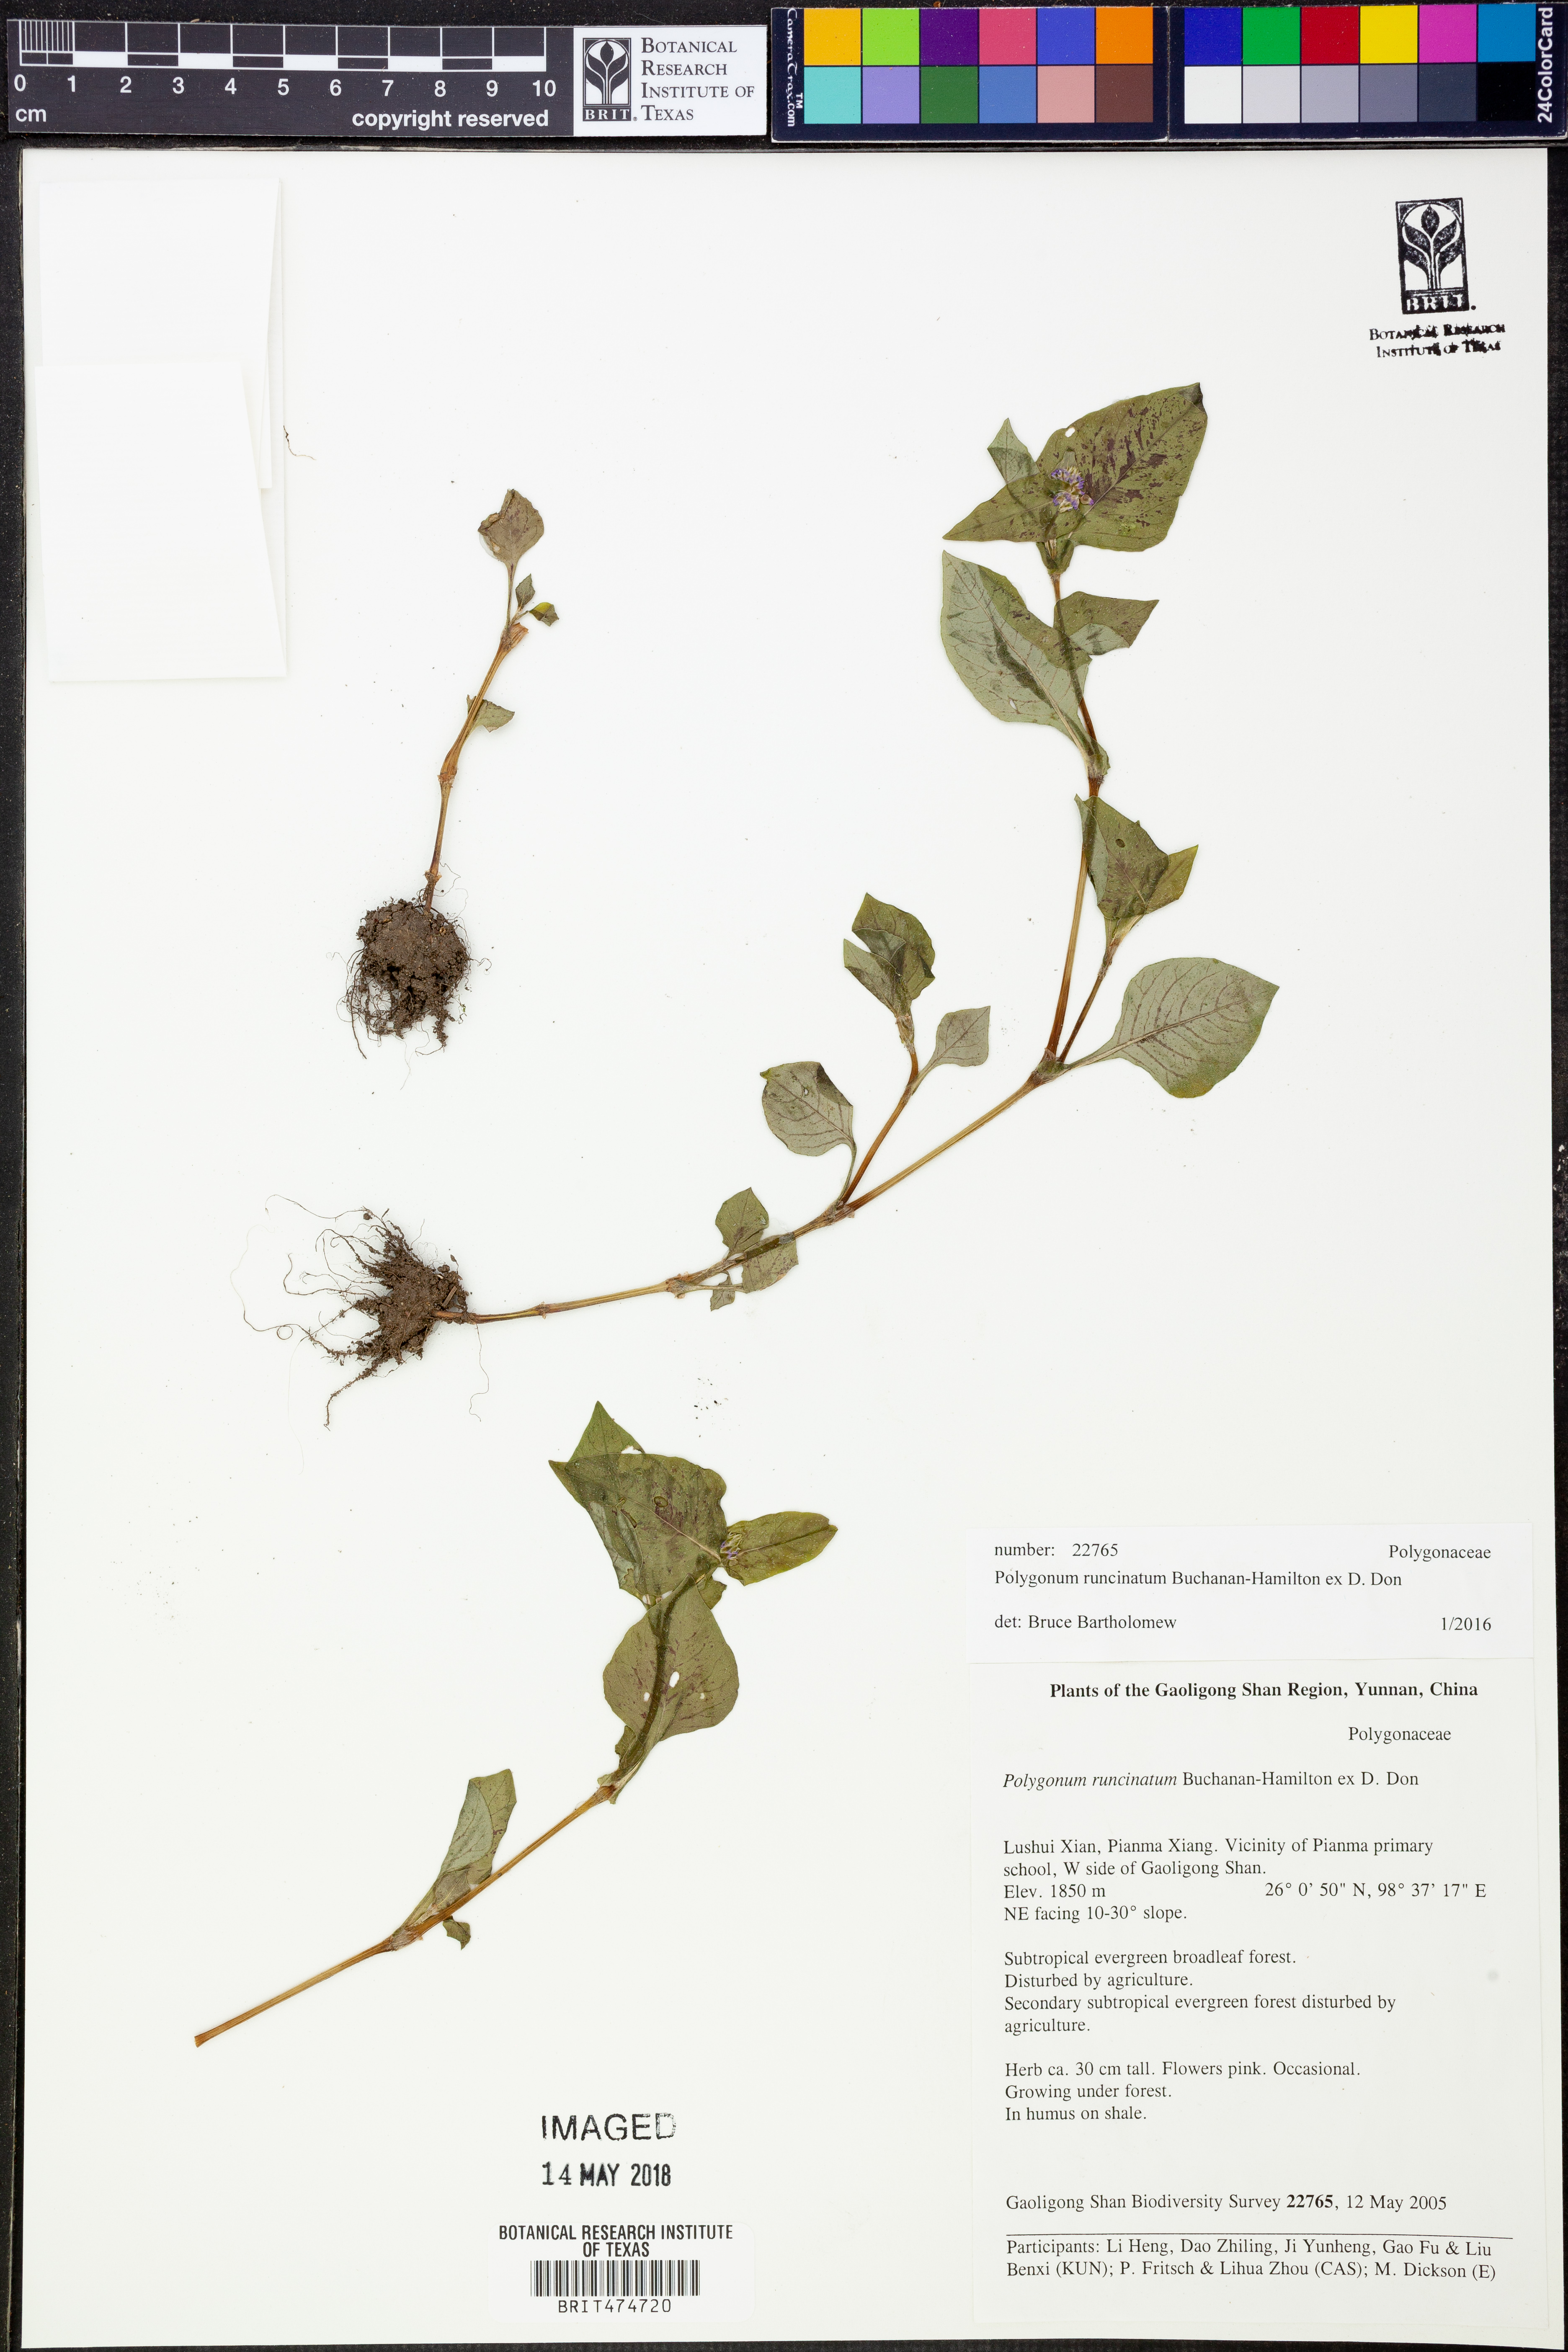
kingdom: Plantae
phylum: Tracheophyta
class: Magnoliopsida
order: Caryophyllales
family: Polygonaceae
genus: Persicaria
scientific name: Persicaria runcinata
